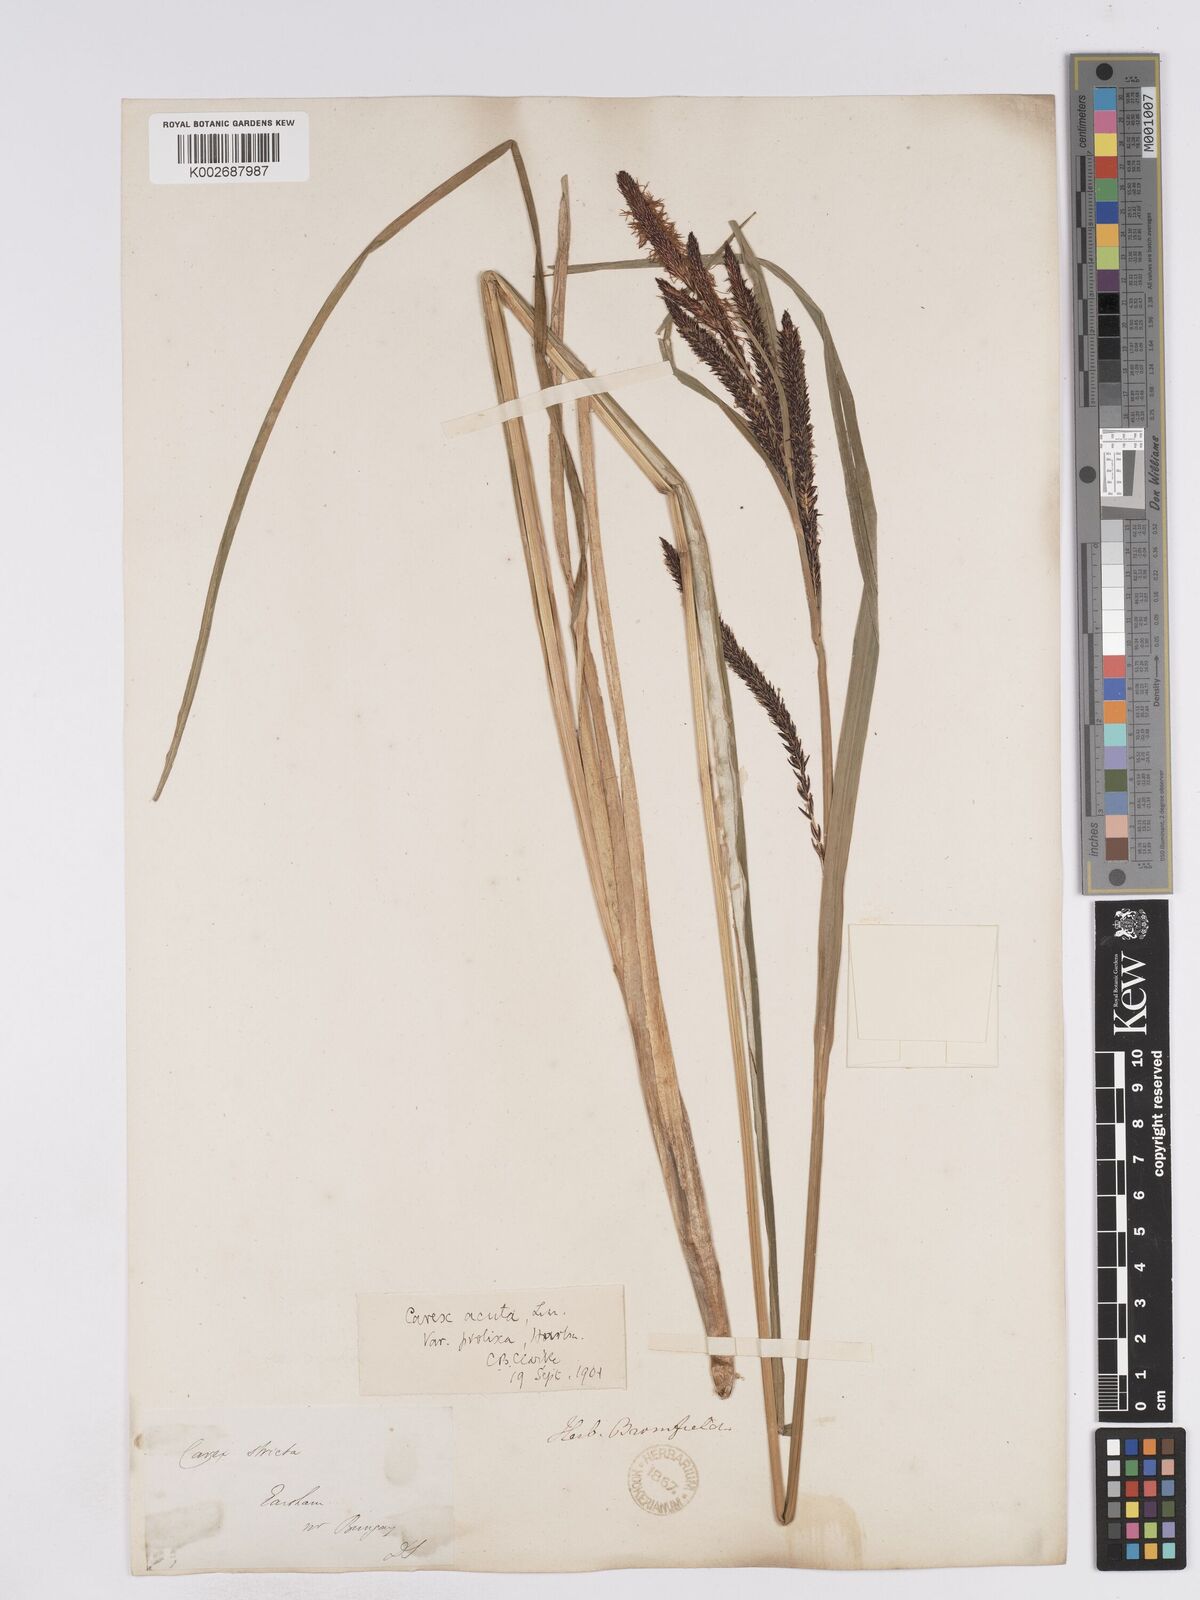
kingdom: Plantae
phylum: Tracheophyta
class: Liliopsida
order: Poales
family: Cyperaceae
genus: Carex
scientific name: Carex acuta
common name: Slender tufted-sedge
